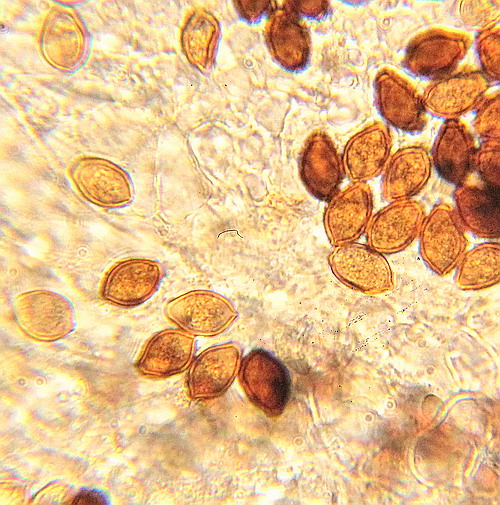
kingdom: Fungi
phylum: Basidiomycota
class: Agaricomycetes
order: Agaricales
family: Bolbitiaceae
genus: Panaeolus
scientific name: Panaeolus acuminatus
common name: høj glanshat
